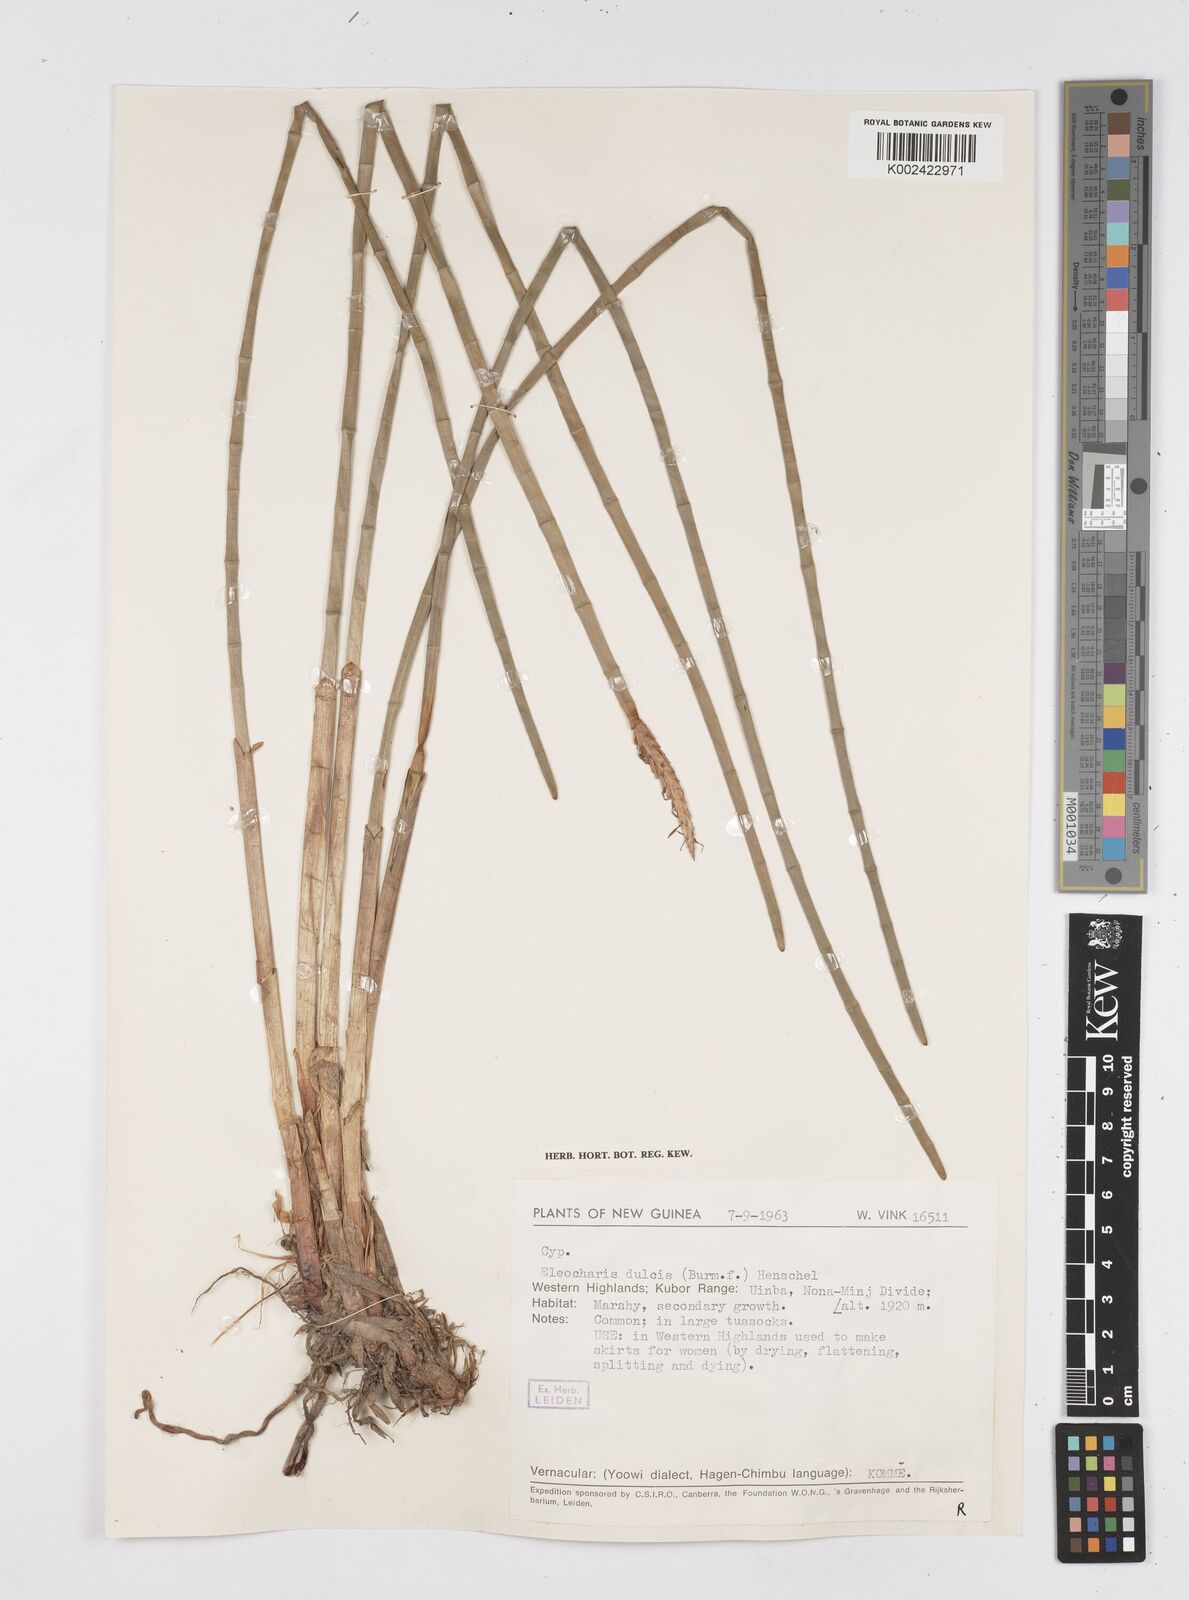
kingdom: Plantae
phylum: Tracheophyta
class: Liliopsida
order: Poales
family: Cyperaceae
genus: Eleocharis
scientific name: Eleocharis dulcis
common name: Chinese water chestnut
